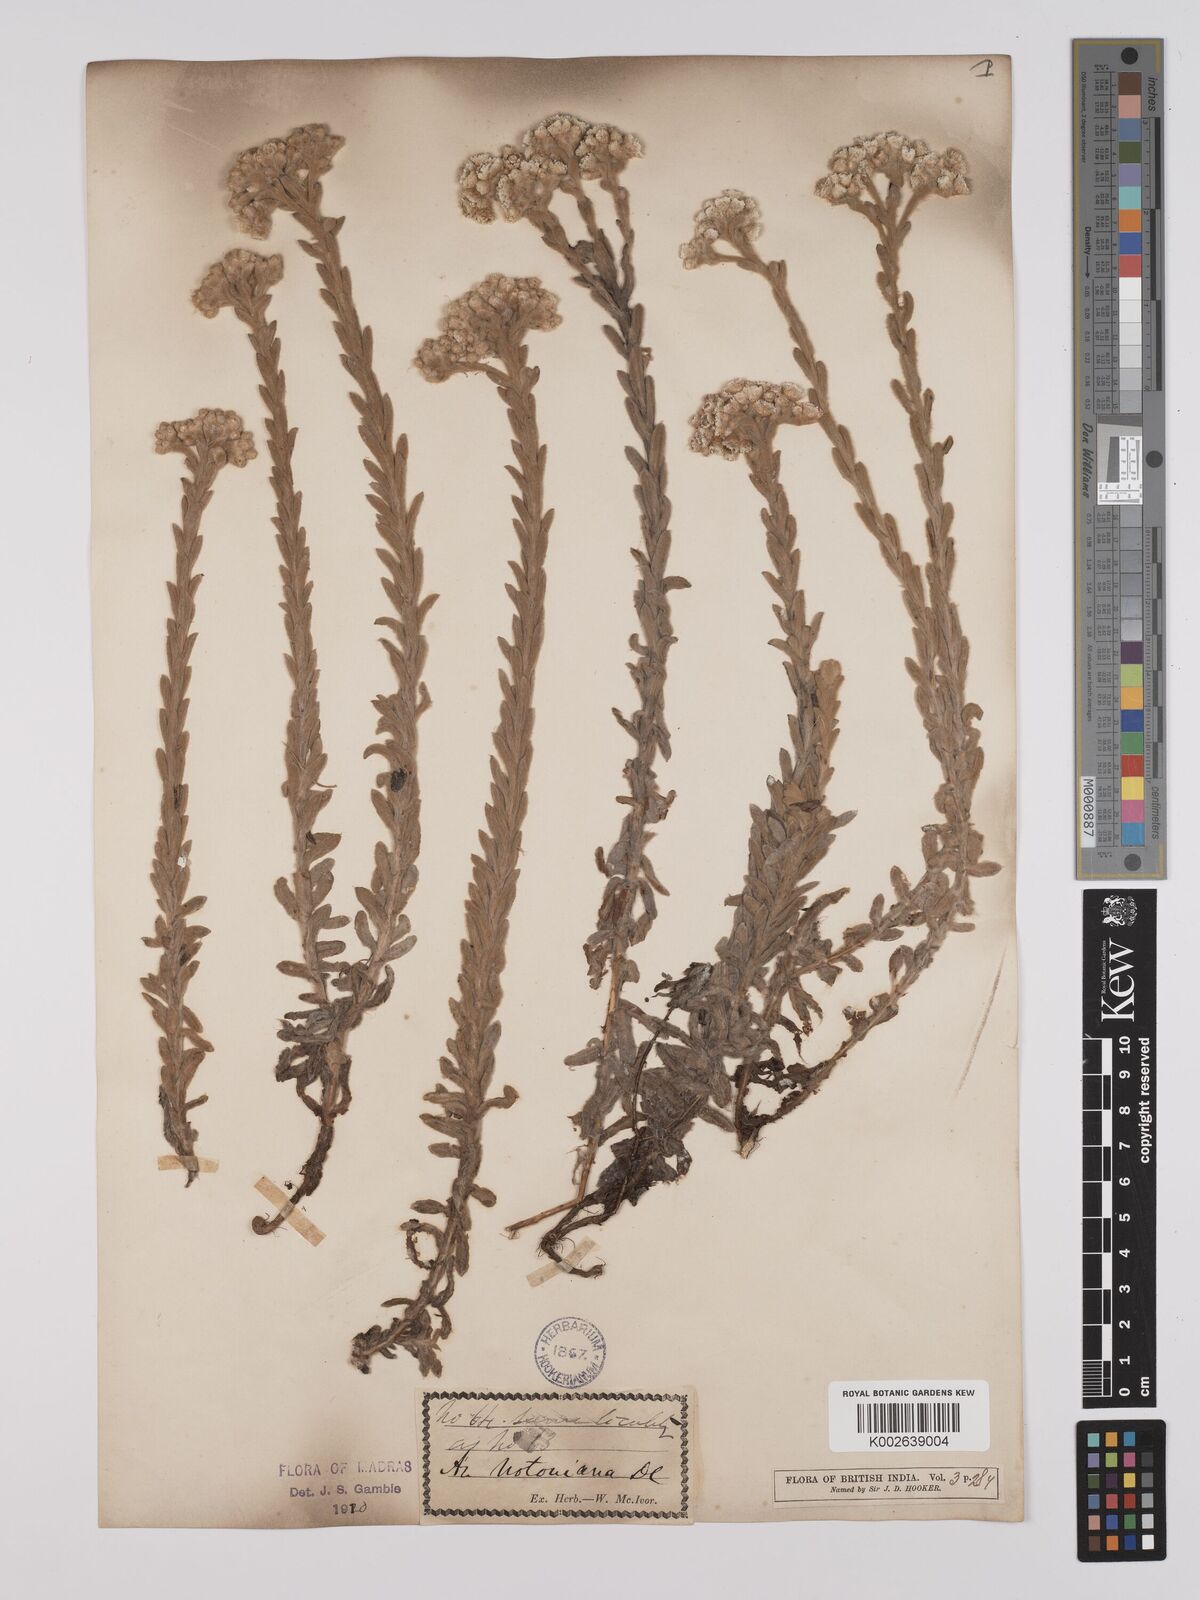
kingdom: Plantae
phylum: Tracheophyta
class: Magnoliopsida
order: Asterales
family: Asteraceae
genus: Anaphalis
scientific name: Anaphalis notoniana
